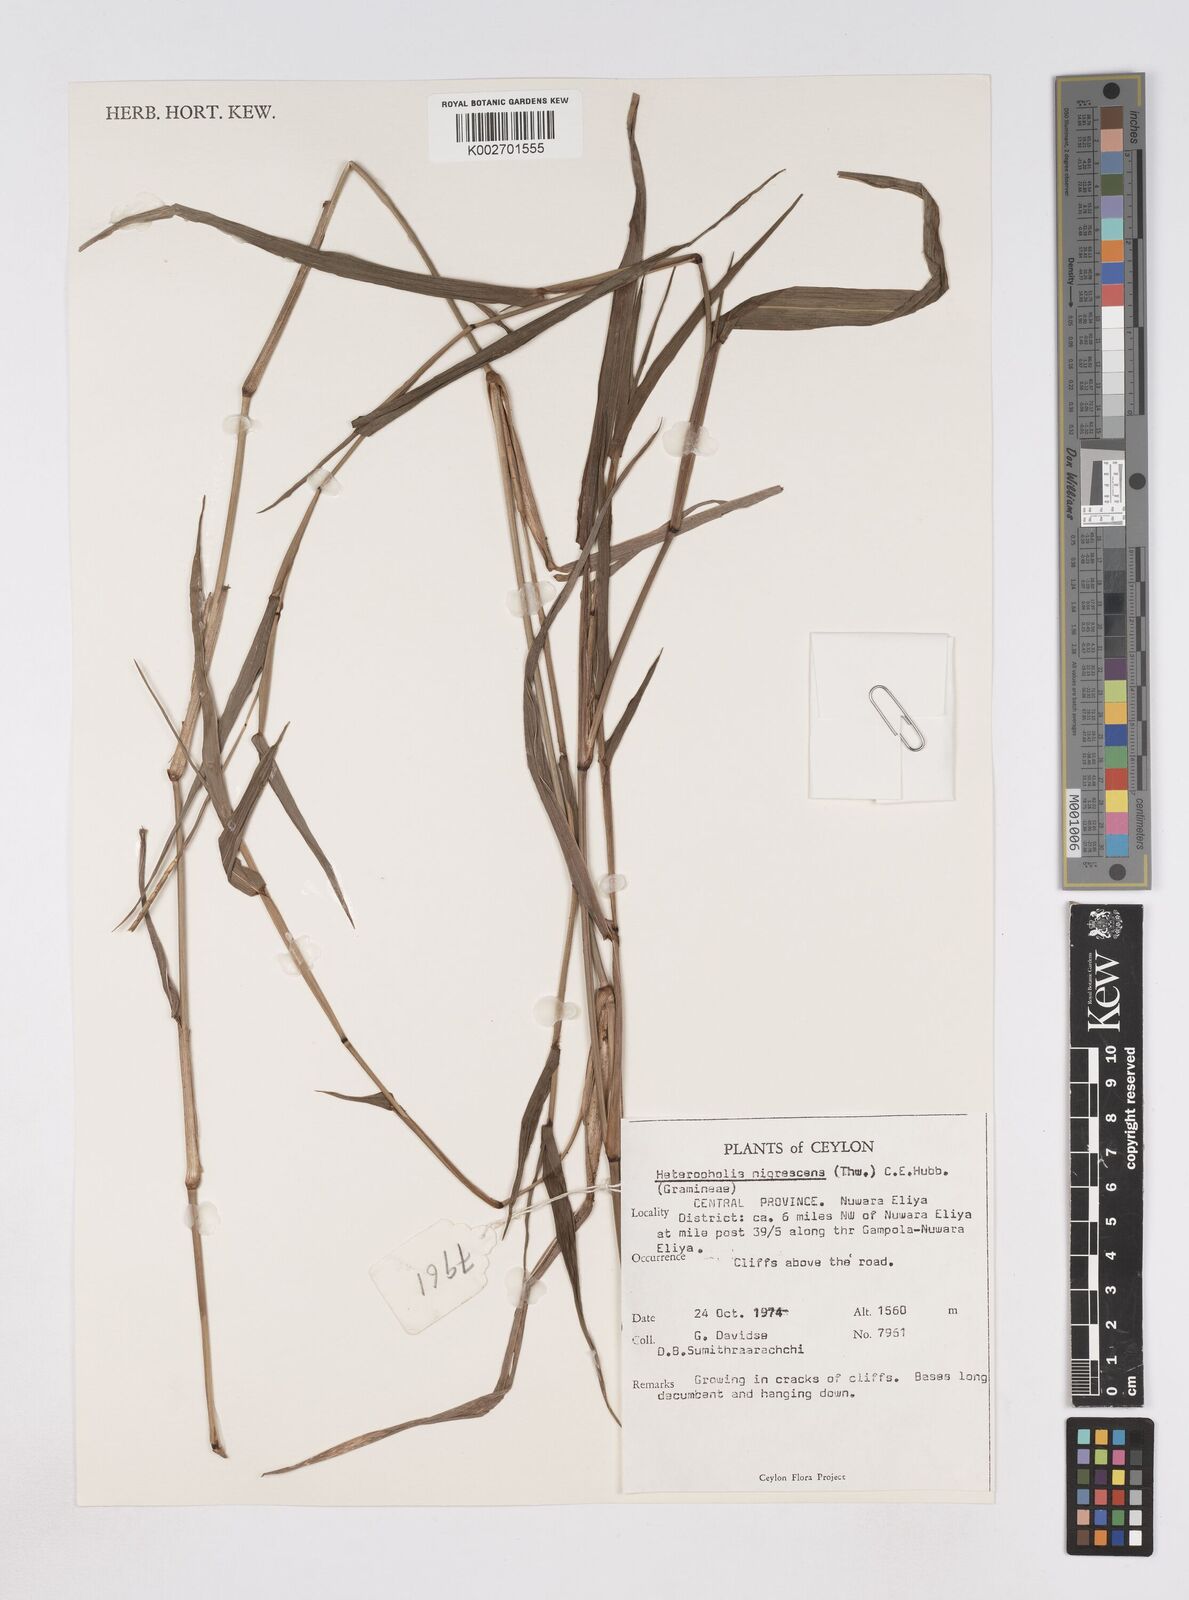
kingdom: Plantae
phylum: Tracheophyta
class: Liliopsida
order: Poales
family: Poaceae
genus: Heteropholis
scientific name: Heteropholis nigrescens
